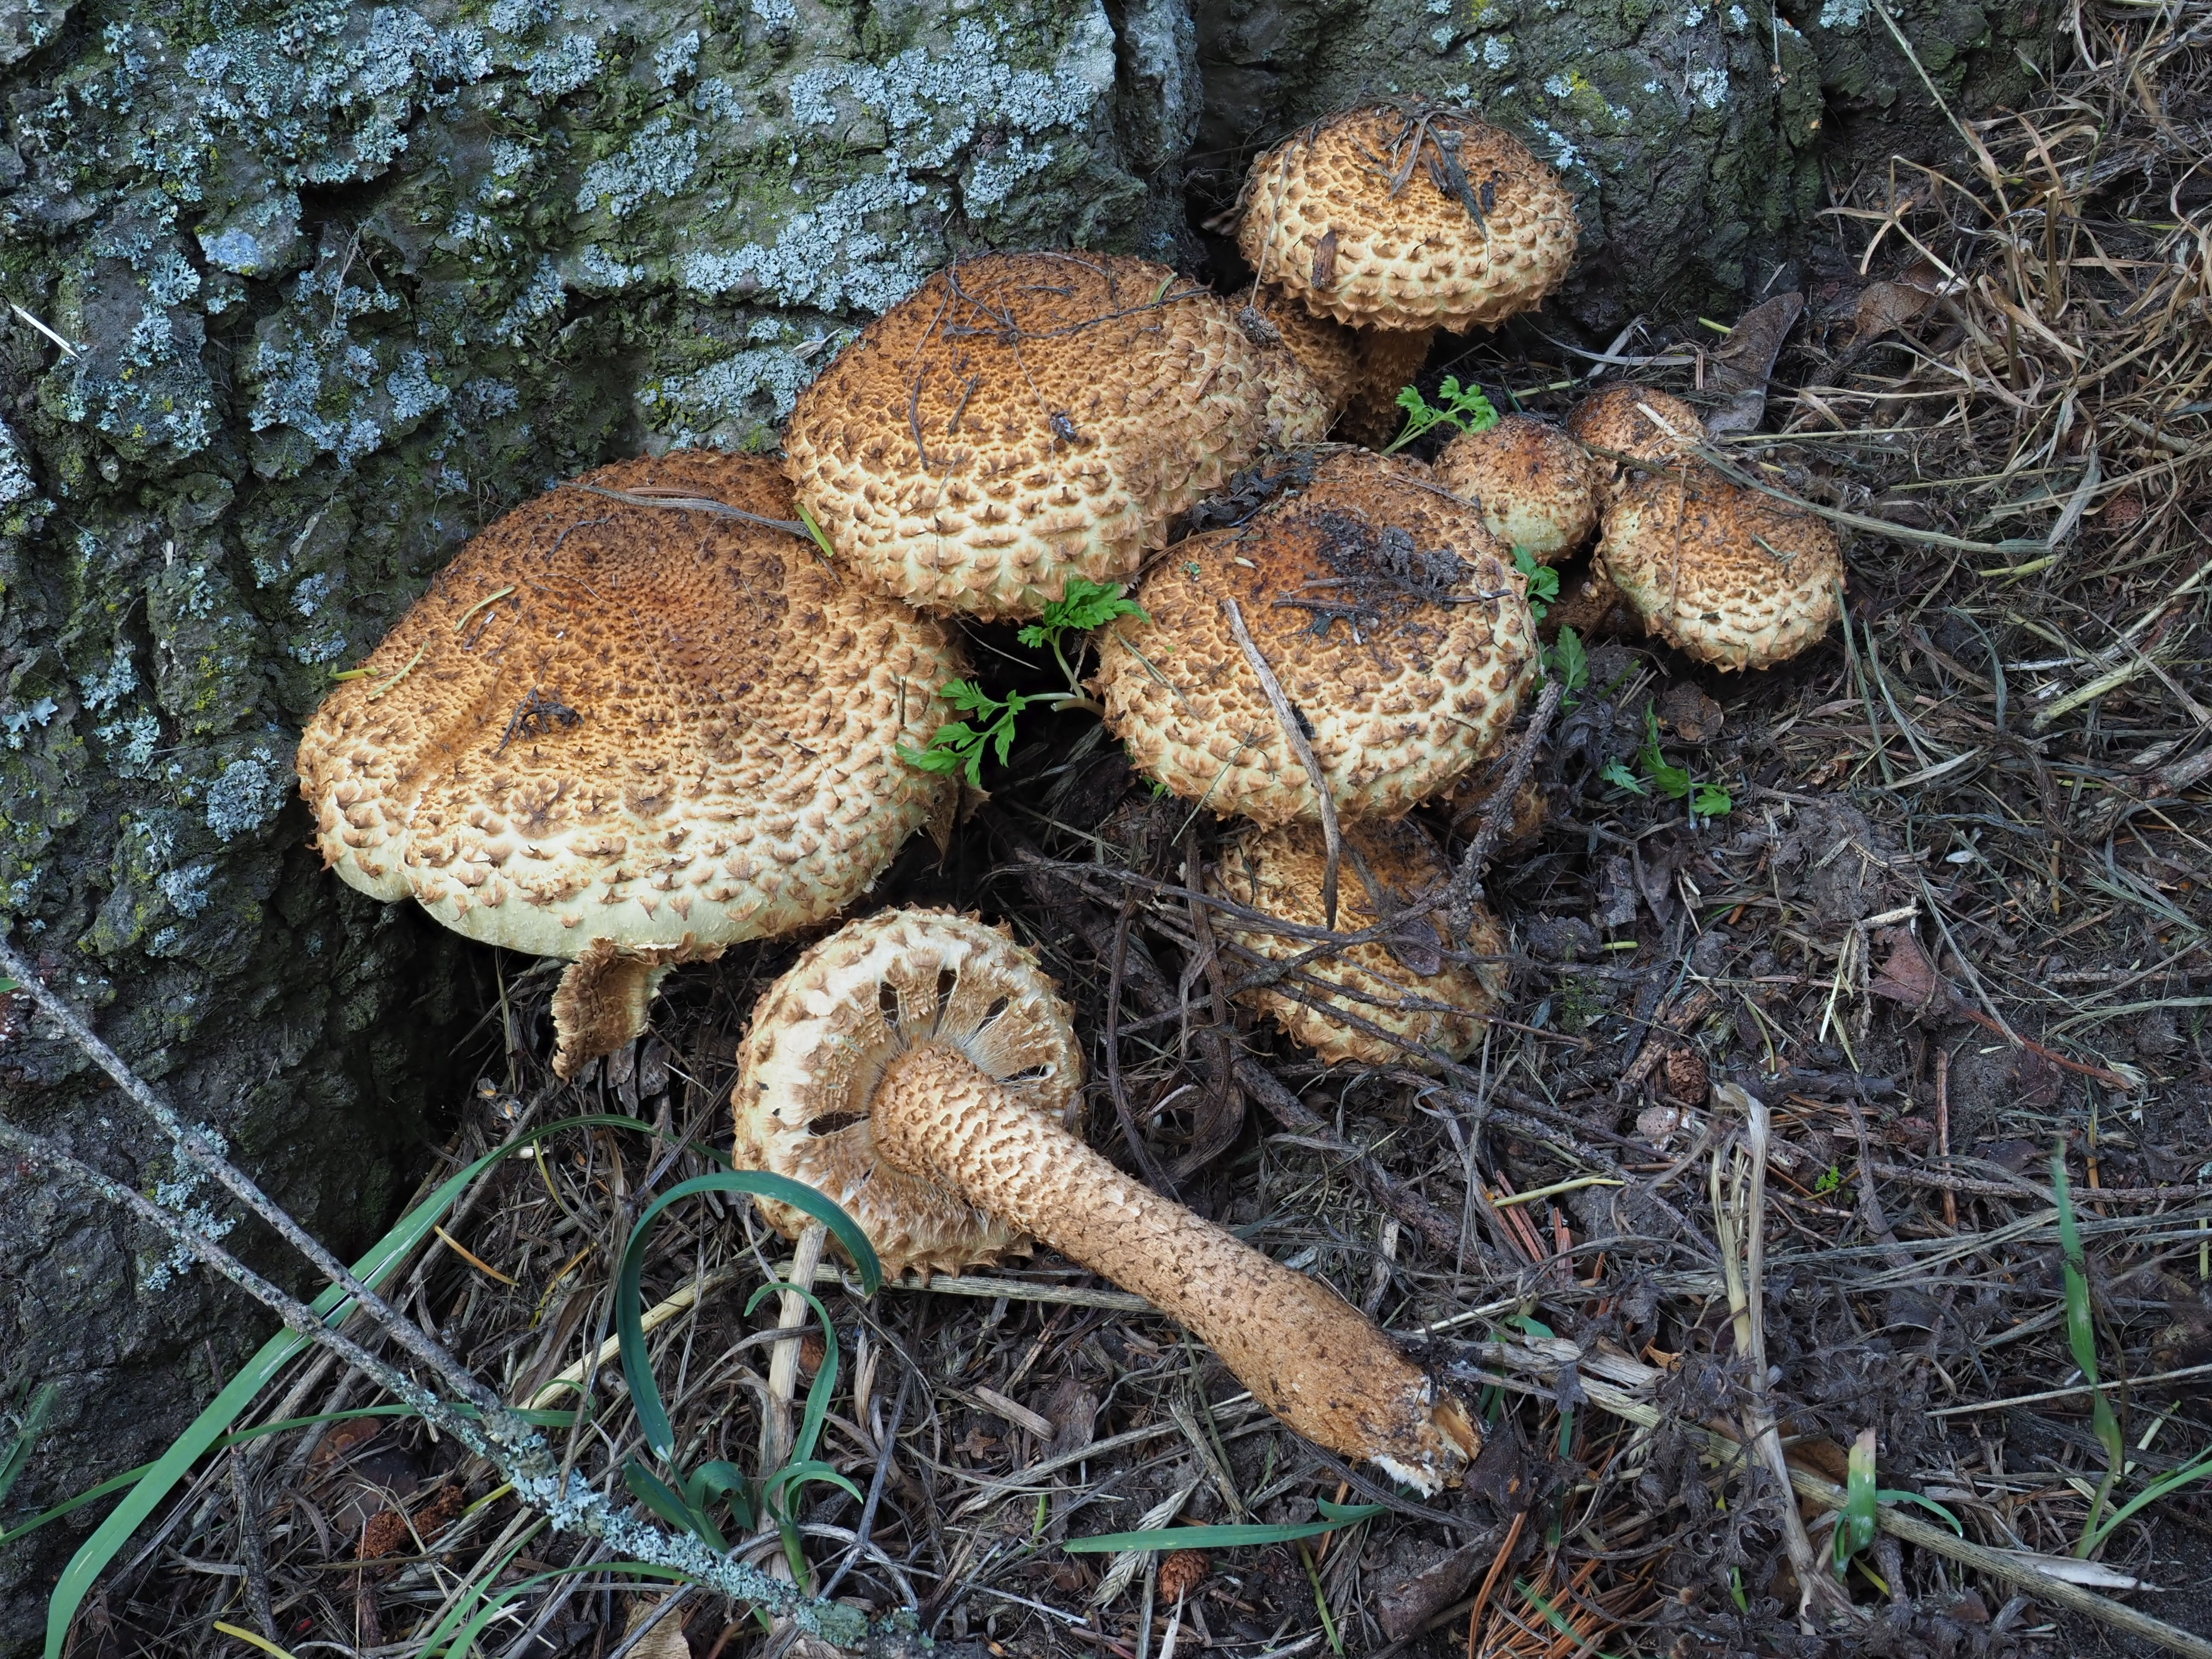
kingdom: Fungi
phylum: Basidiomycota
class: Agaricomycetes
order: Agaricales
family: Strophariaceae
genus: Pholiota
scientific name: Pholiota squarrosa
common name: Shaggy pholiota
